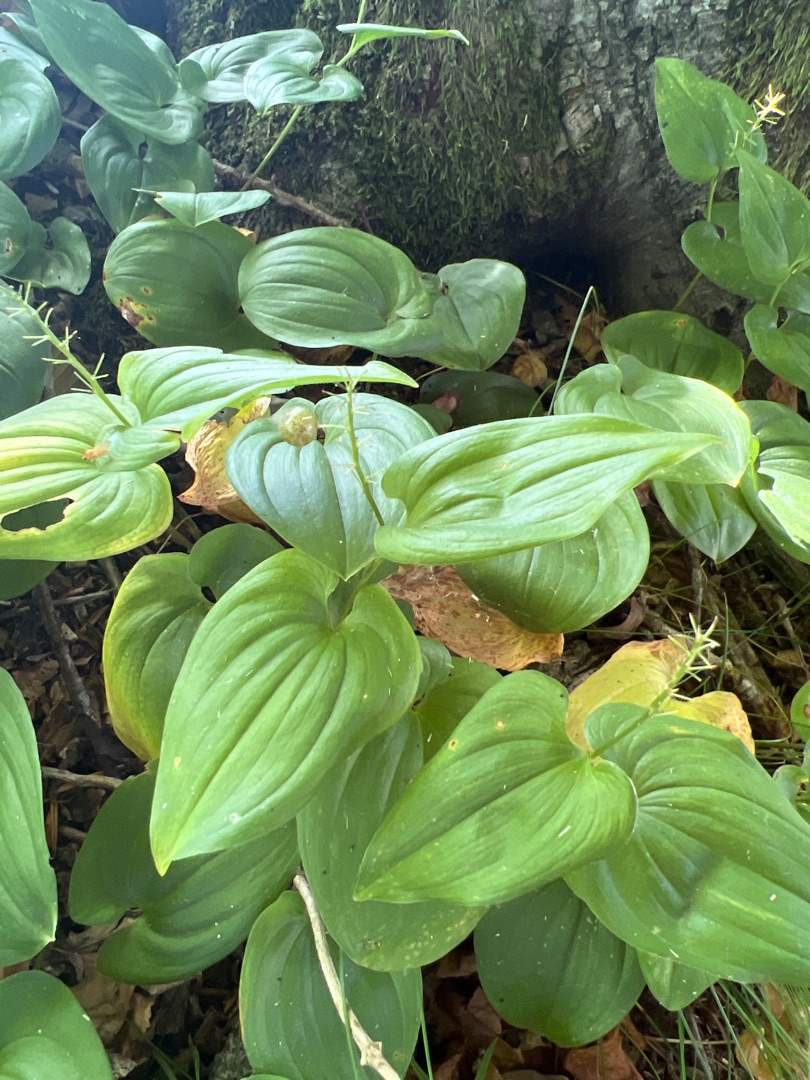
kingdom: Plantae
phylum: Tracheophyta
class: Liliopsida
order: Asparagales
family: Asparagaceae
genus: Maianthemum
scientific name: Maianthemum bifolium
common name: Majblomst
